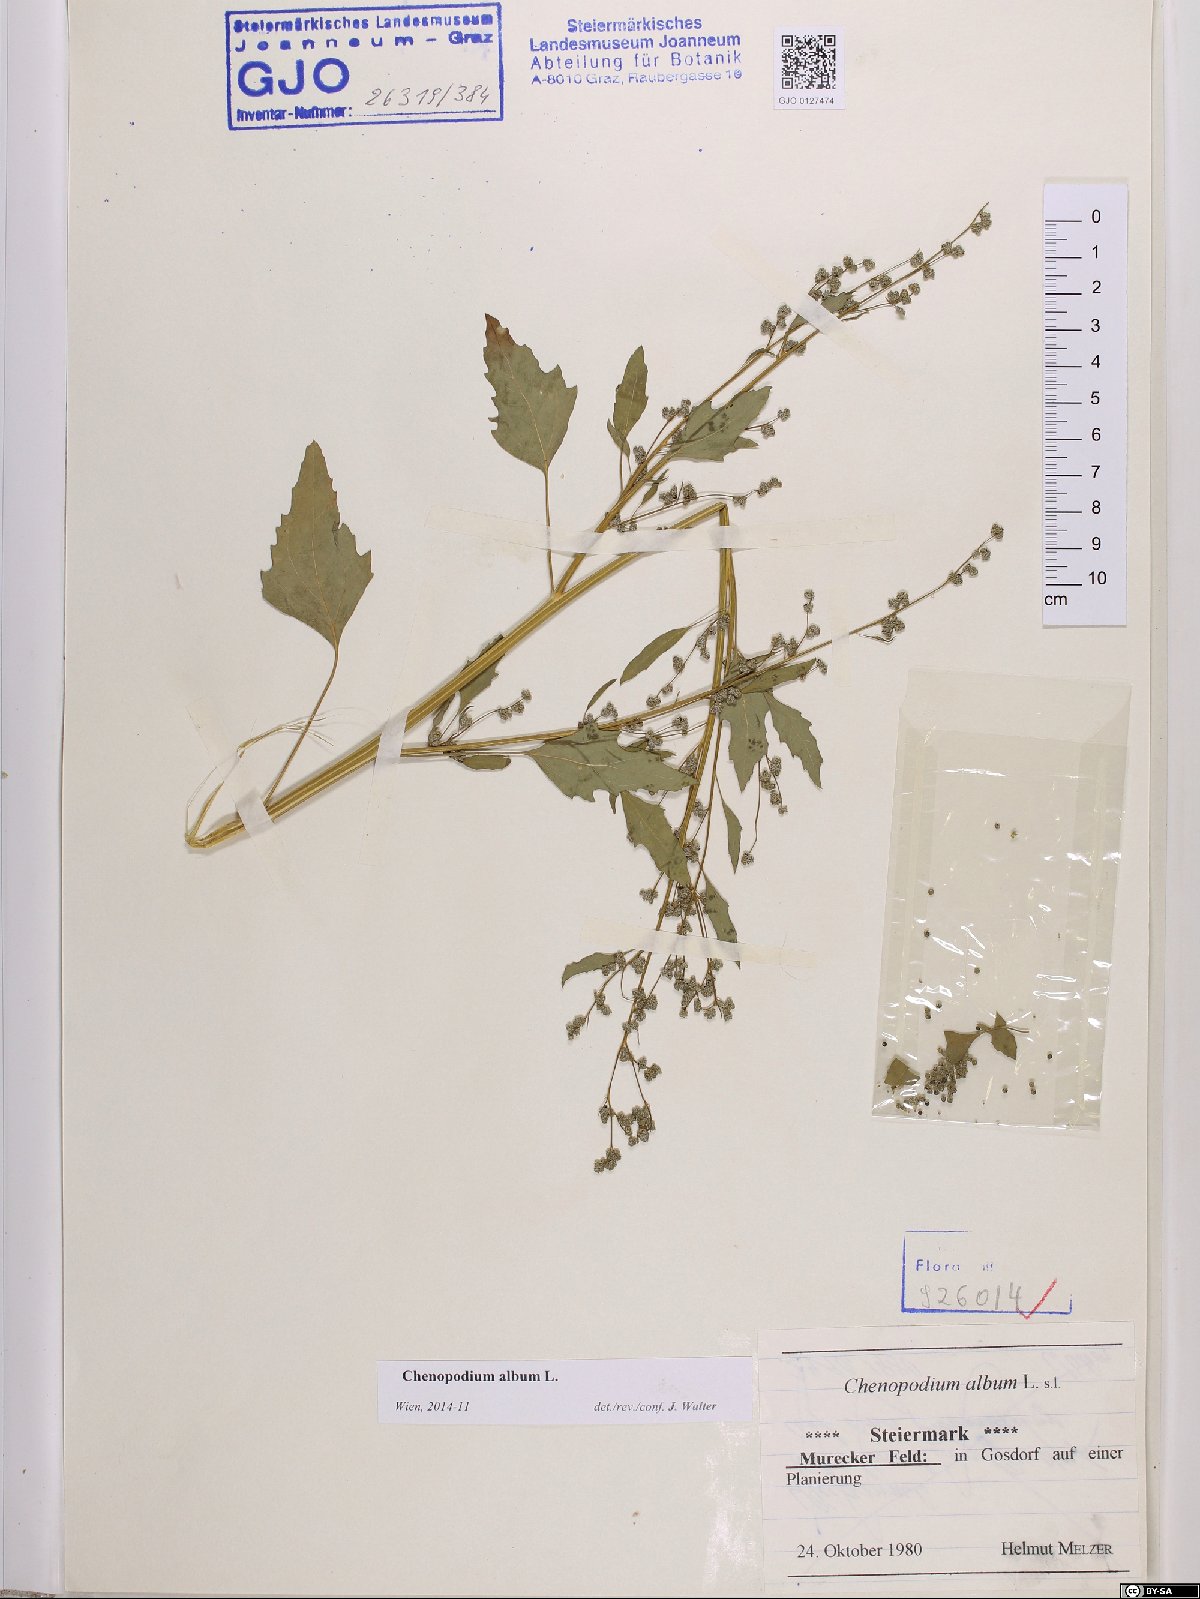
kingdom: Plantae
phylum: Tracheophyta
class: Magnoliopsida
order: Caryophyllales
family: Amaranthaceae
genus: Chenopodium
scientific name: Chenopodium album
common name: Fat-hen
